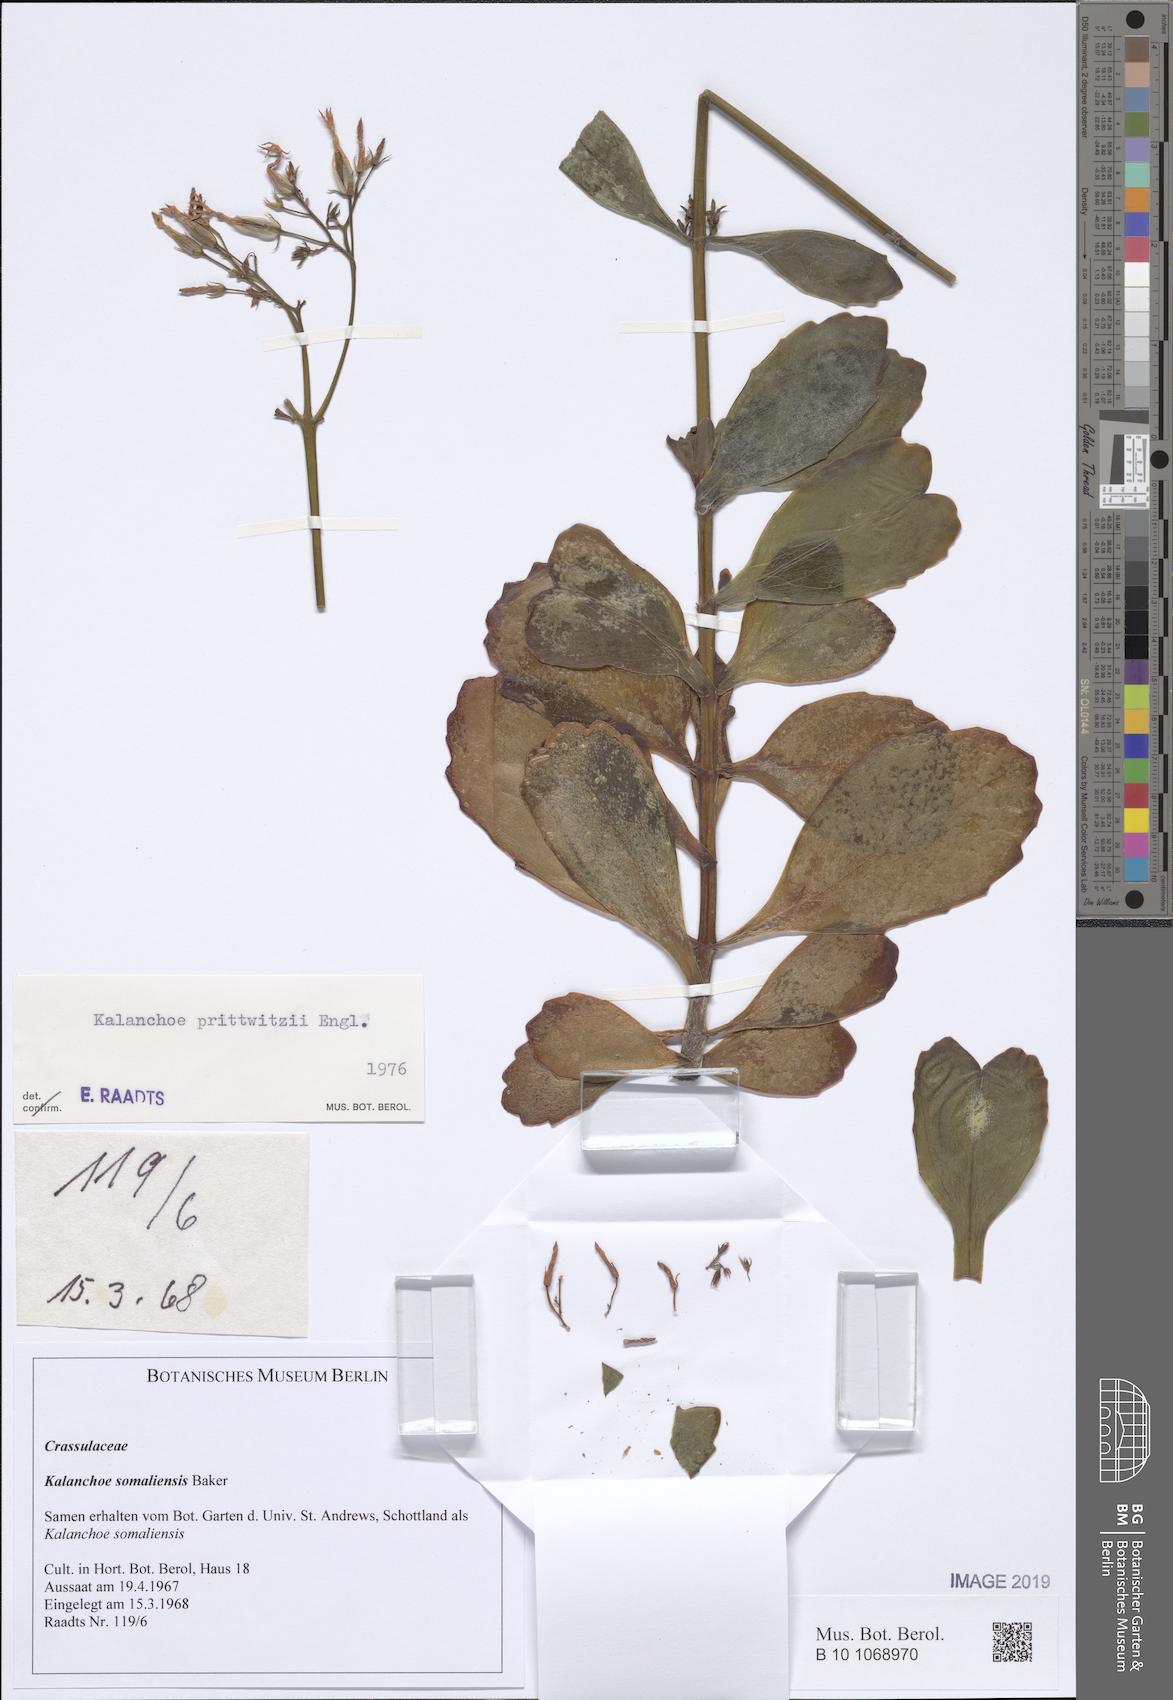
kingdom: Plantae
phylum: Tracheophyta
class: Magnoliopsida
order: Saxifragales
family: Crassulaceae
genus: Kalanchoe
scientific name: Kalanchoe prittwitzii
